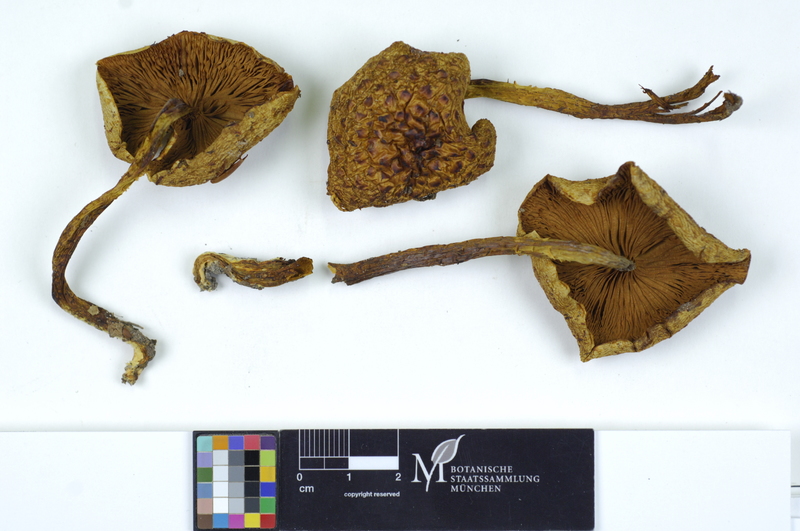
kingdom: Fungi
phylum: Basidiomycota
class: Agaricomycetes
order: Agaricales
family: Strophariaceae
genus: Pholiota
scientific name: Pholiota adiposa
